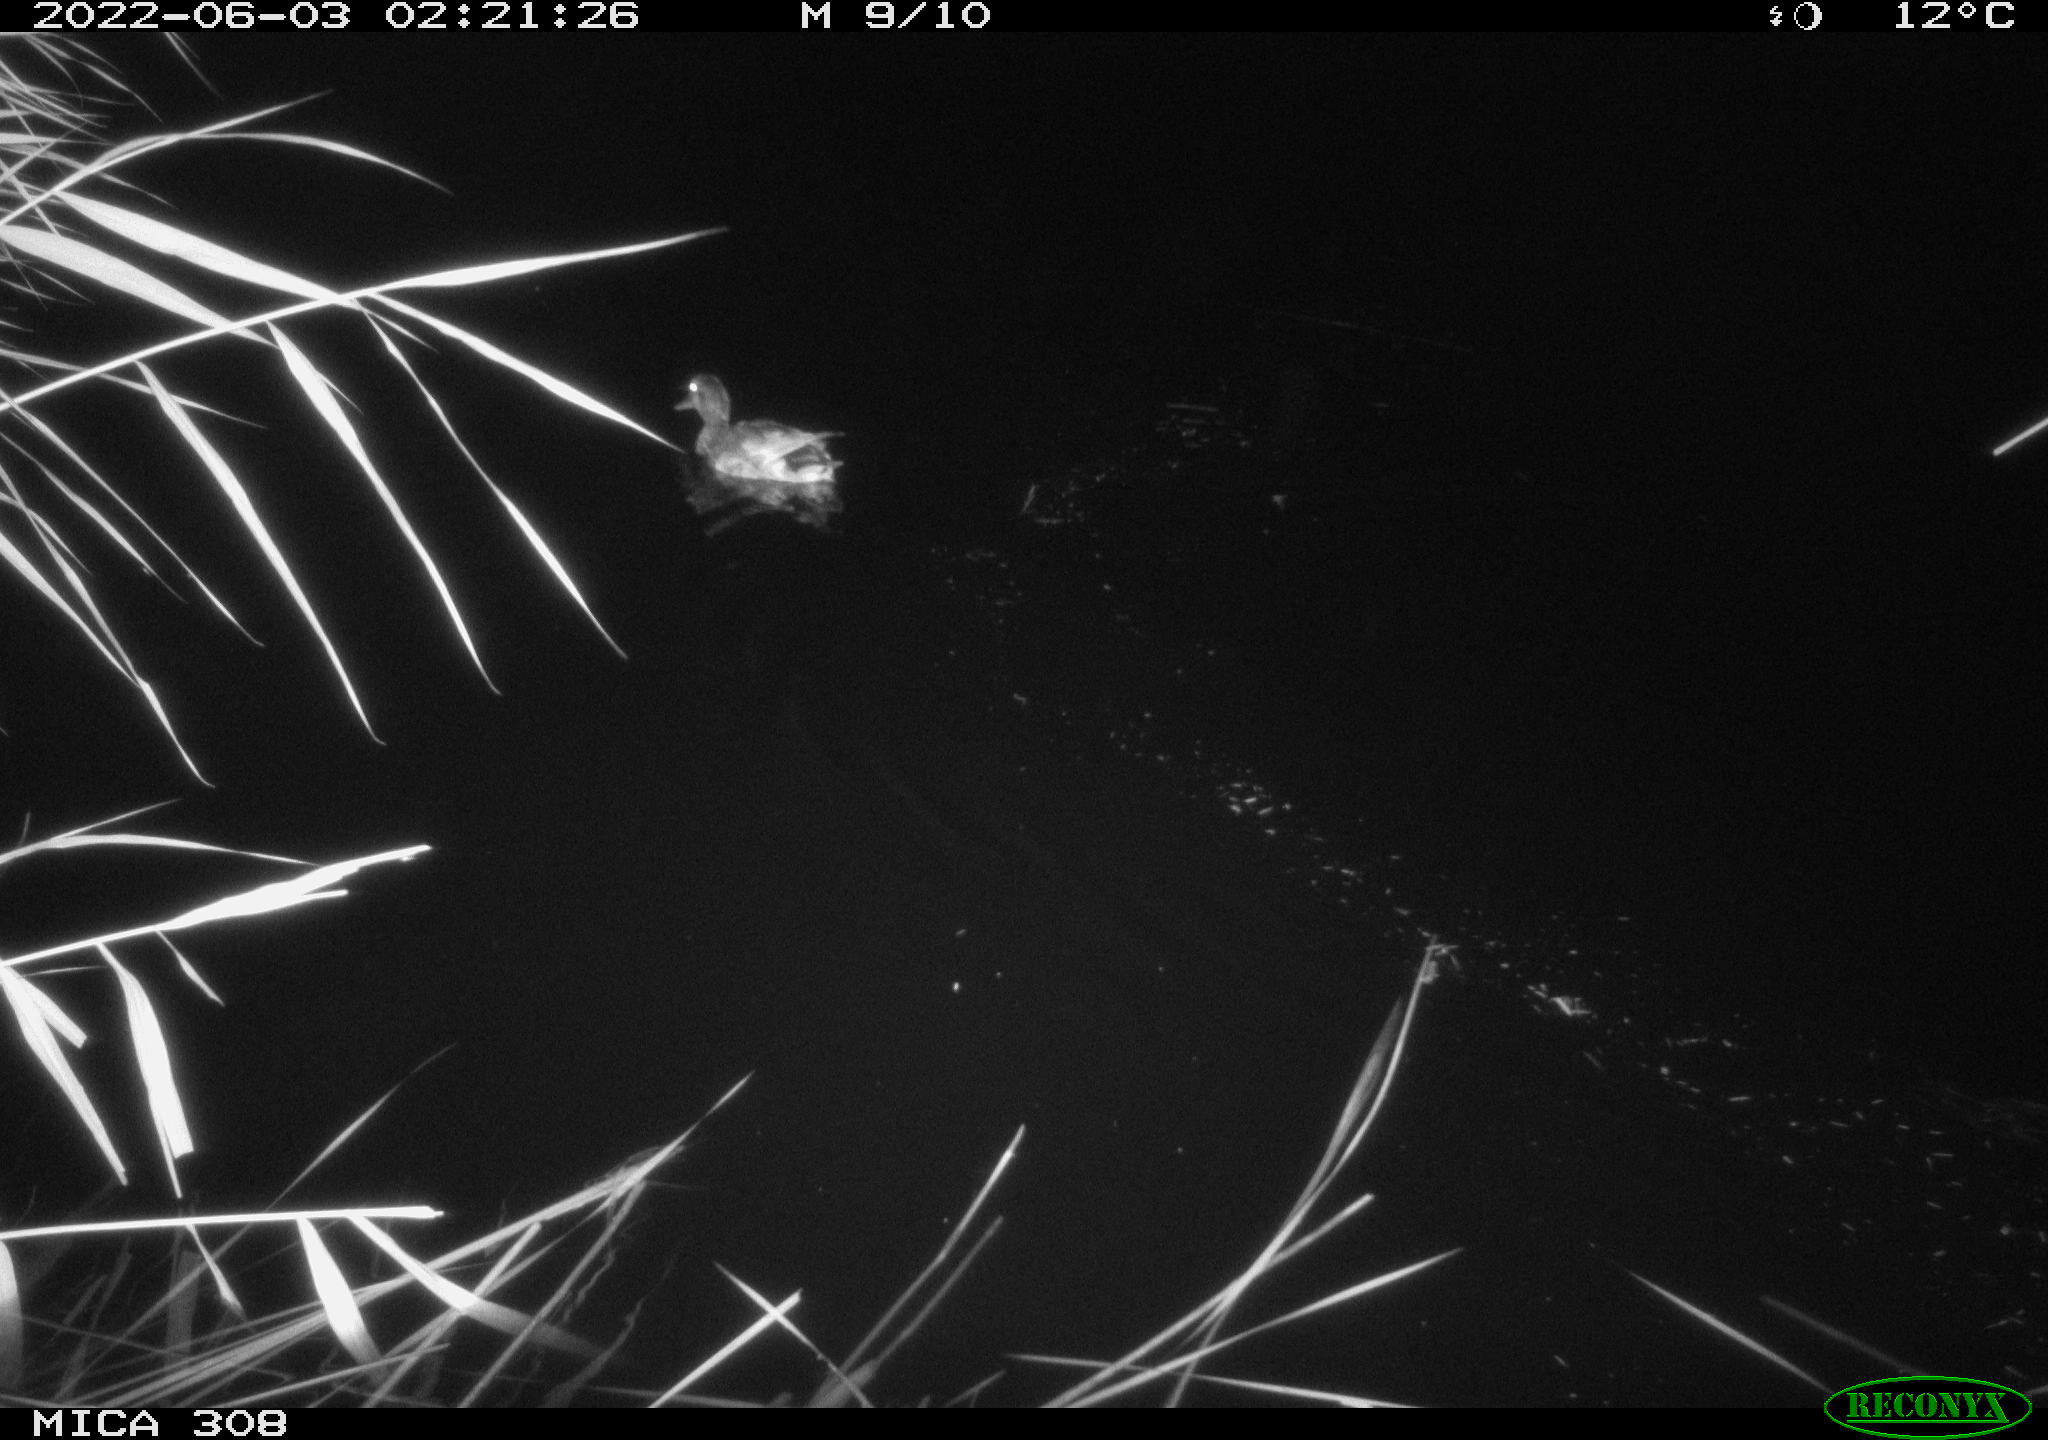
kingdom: Animalia
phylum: Chordata
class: Aves
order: Anseriformes
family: Anatidae
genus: Anas
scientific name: Anas platyrhynchos
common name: Mallard
